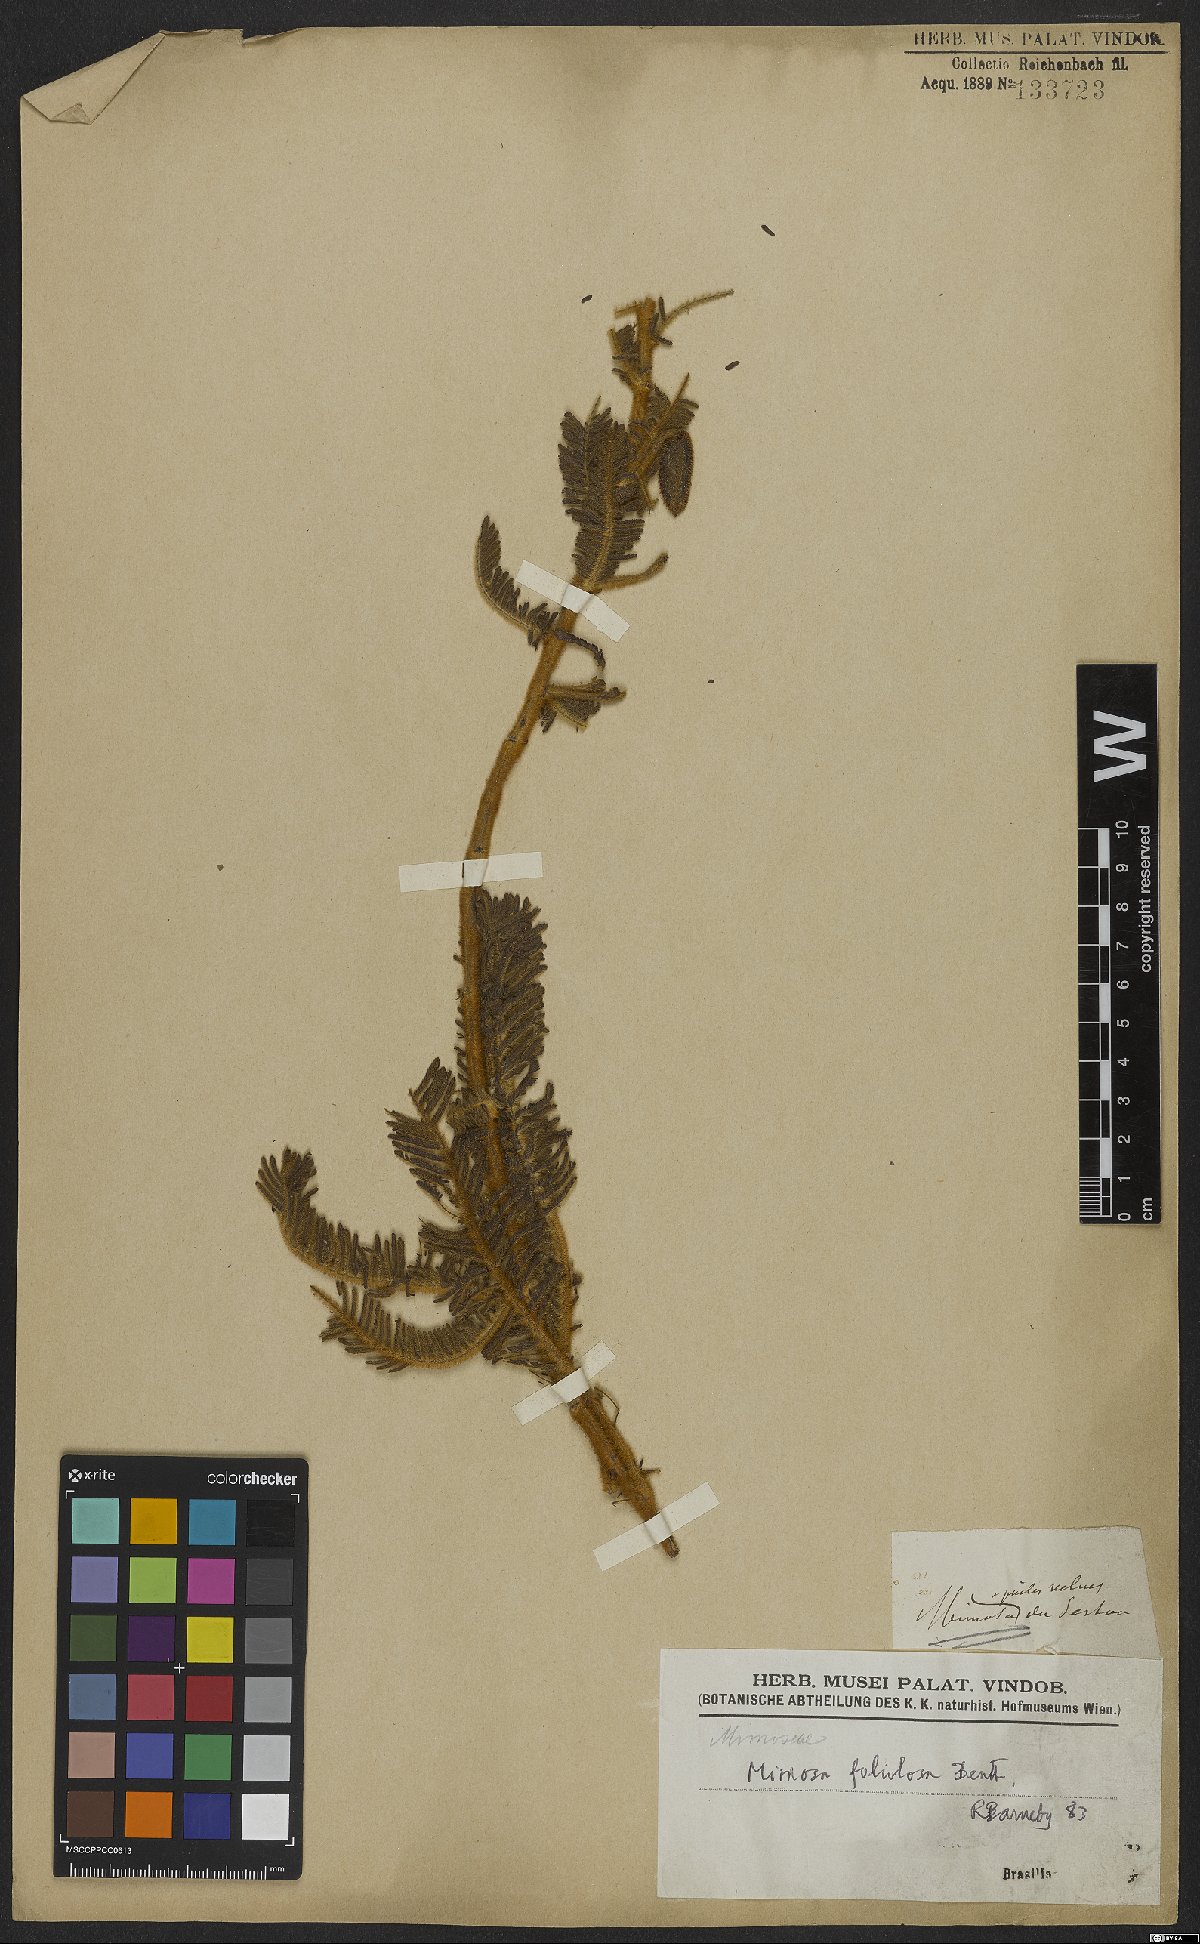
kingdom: Plantae
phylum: Tracheophyta
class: Magnoliopsida
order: Fabales
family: Fabaceae
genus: Mimosa
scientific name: Mimosa foliolosa
